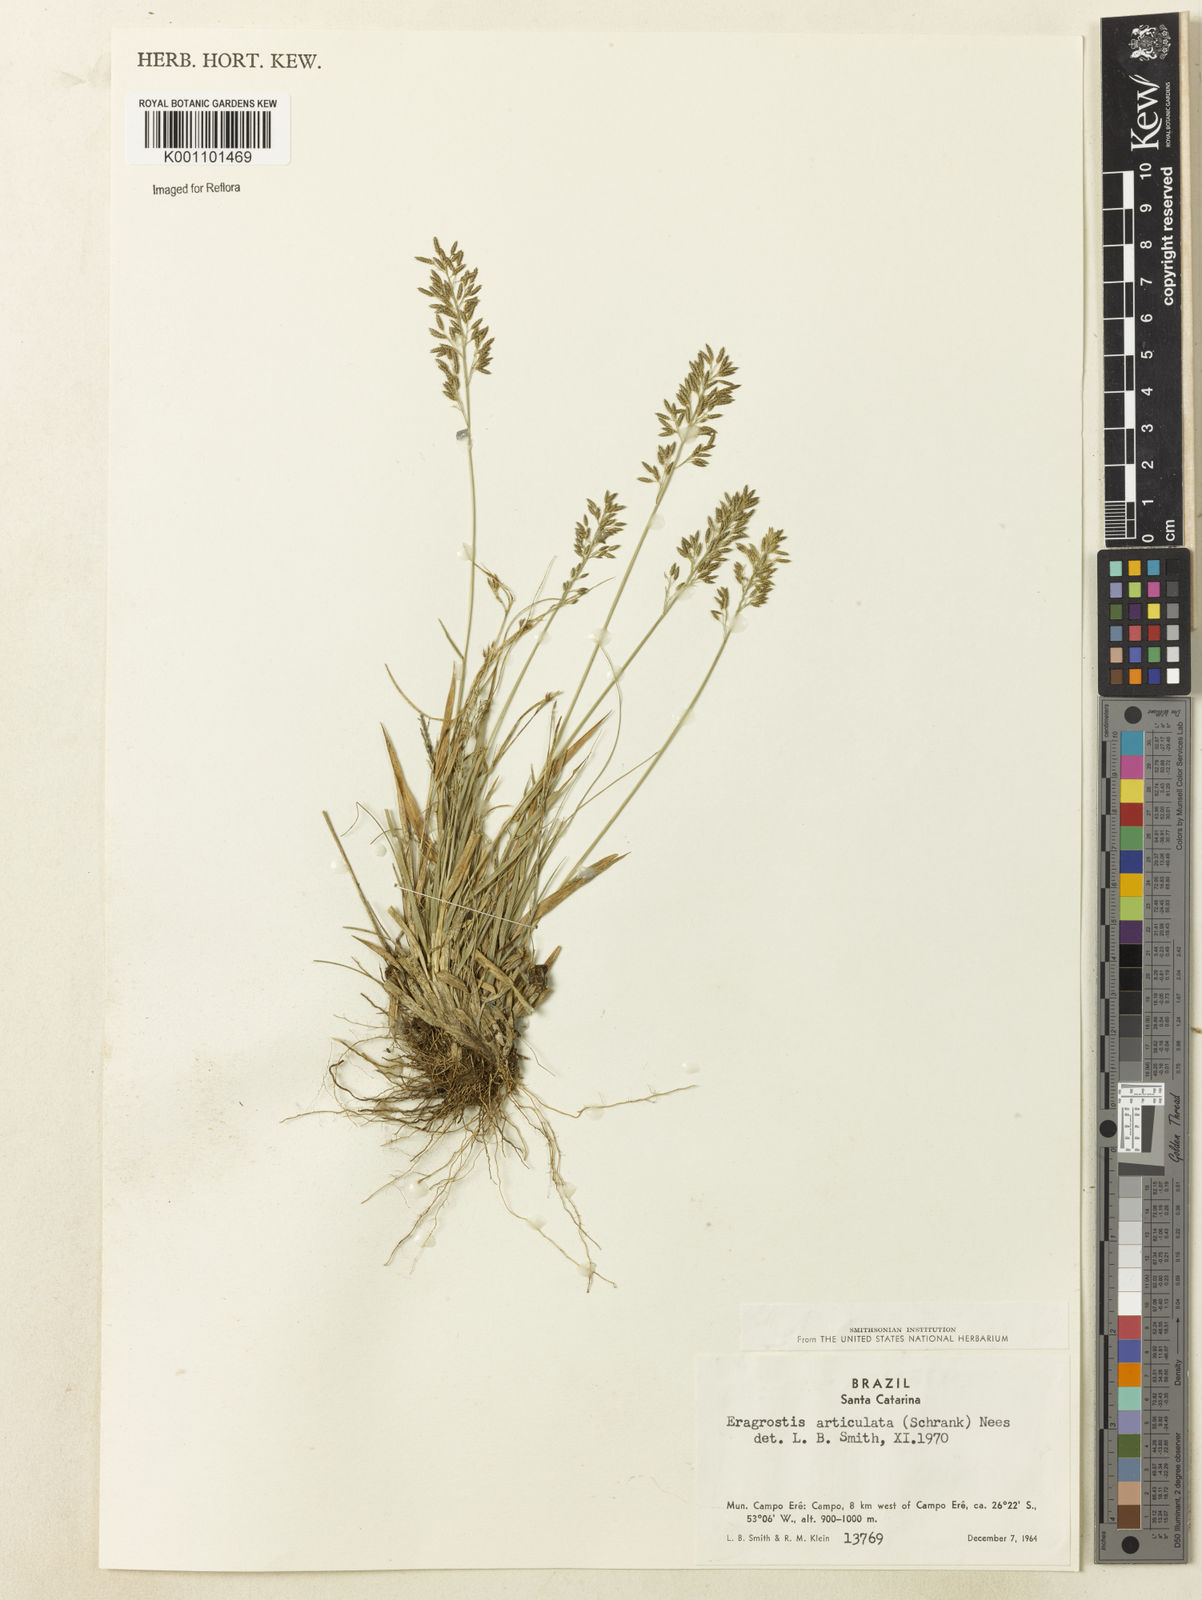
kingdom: Plantae
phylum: Tracheophyta
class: Liliopsida
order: Poales
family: Poaceae
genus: Eragrostis
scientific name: Eragrostis neesii
